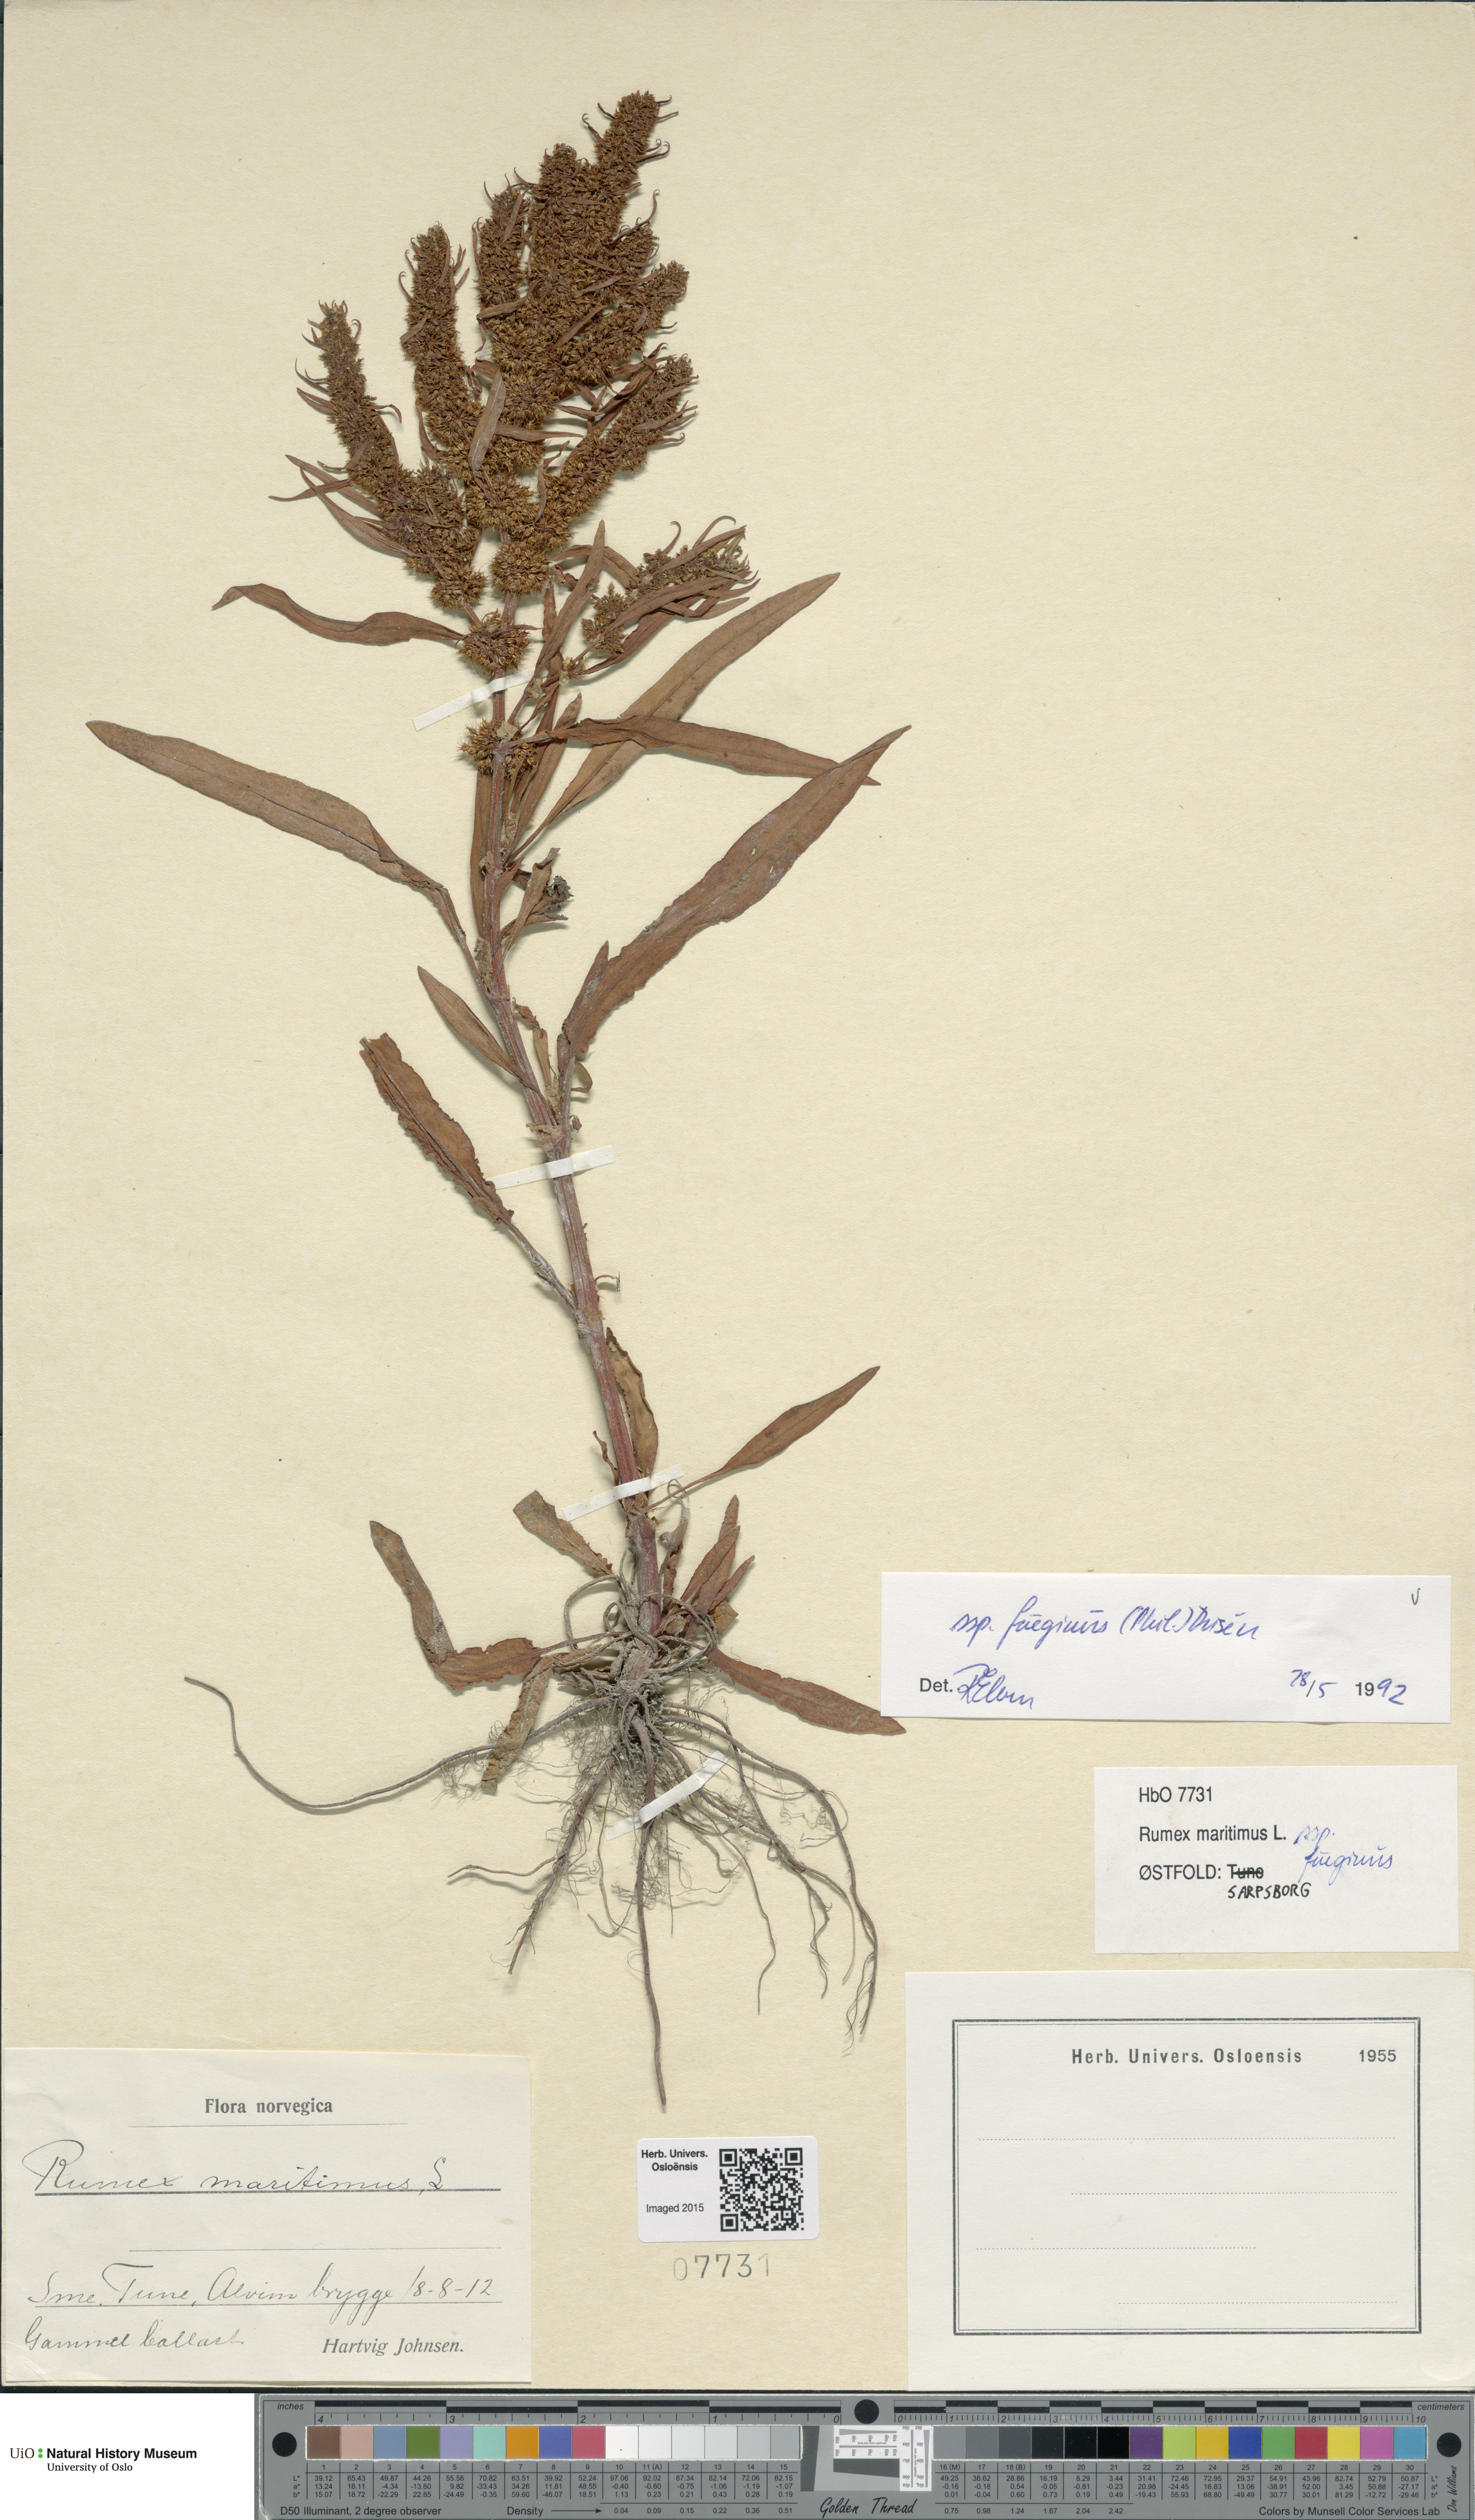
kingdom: Plantae
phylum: Tracheophyta
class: Magnoliopsida
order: Caryophyllales
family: Polygonaceae
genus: Rumex
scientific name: Rumex fueginus
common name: American golden dock
